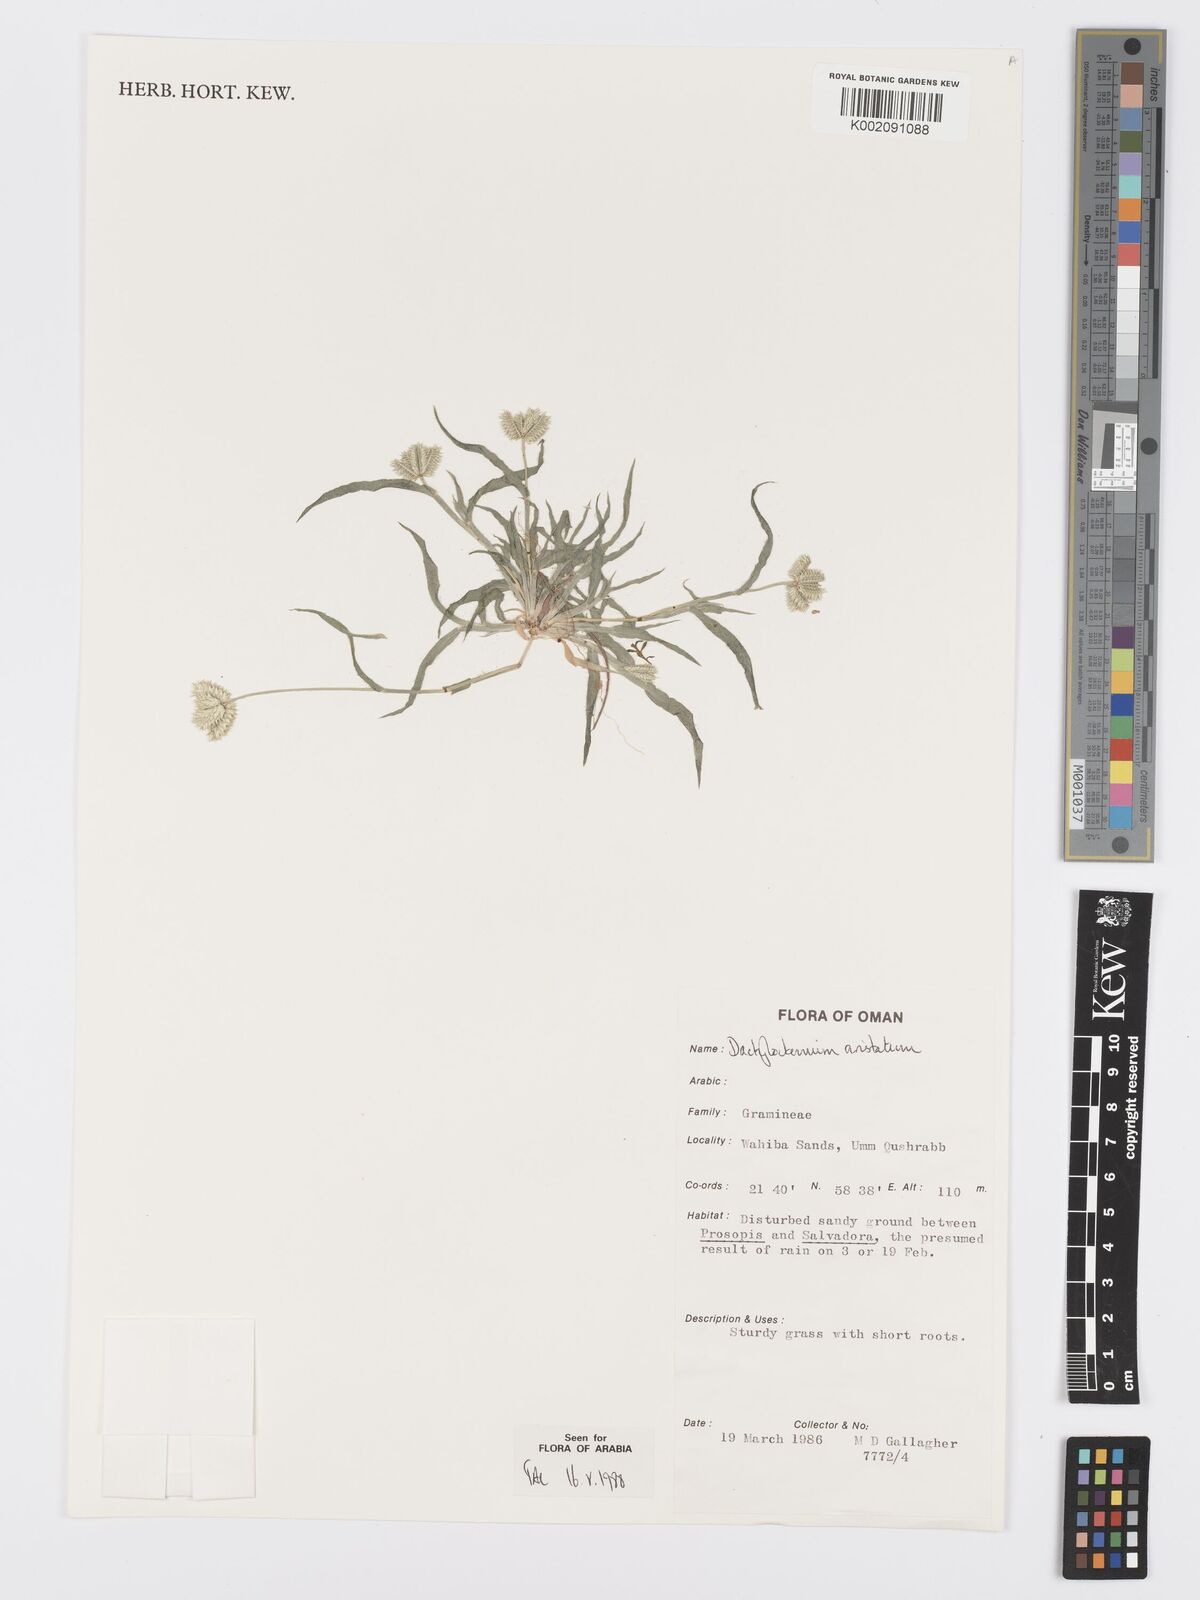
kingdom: Plantae
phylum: Tracheophyta
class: Liliopsida
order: Poales
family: Poaceae
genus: Dactyloctenium
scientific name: Dactyloctenium aristatum
